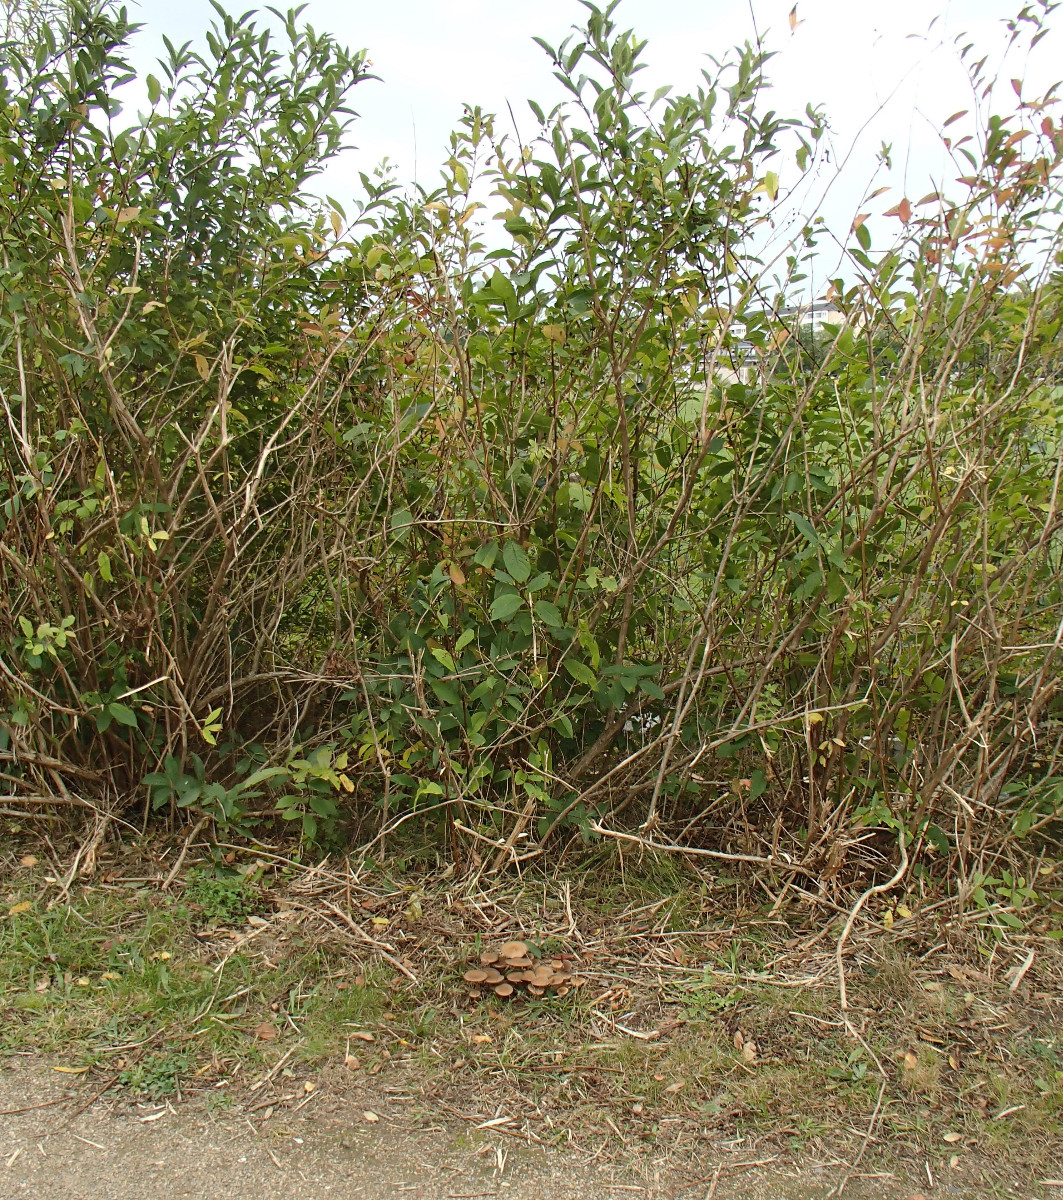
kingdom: Fungi
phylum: Basidiomycota
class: Agaricomycetes
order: Agaricales
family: Psathyrellaceae
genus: Lacrymaria
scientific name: Lacrymaria lacrymabunda
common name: grædende mørkhat
